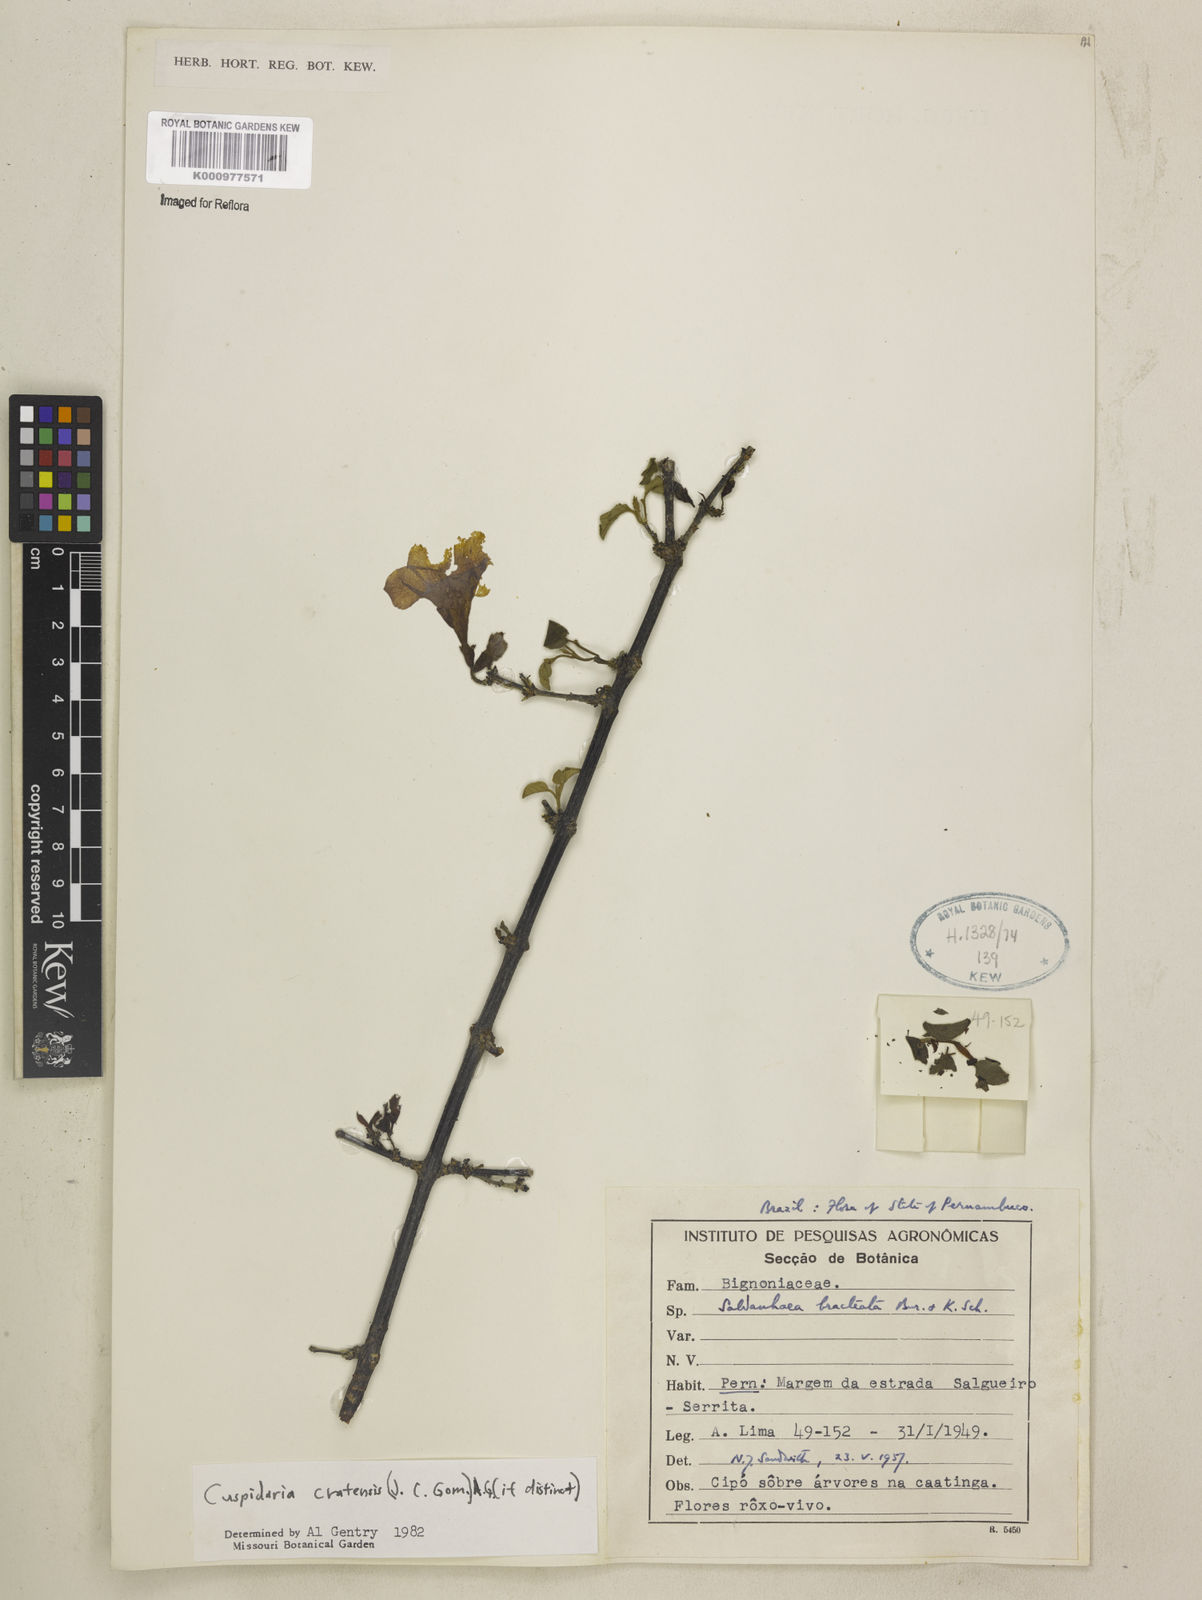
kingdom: Plantae
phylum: Tracheophyta
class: Magnoliopsida
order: Lamiales
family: Bignoniaceae
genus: Cuspidaria
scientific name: Cuspidaria cratensis
